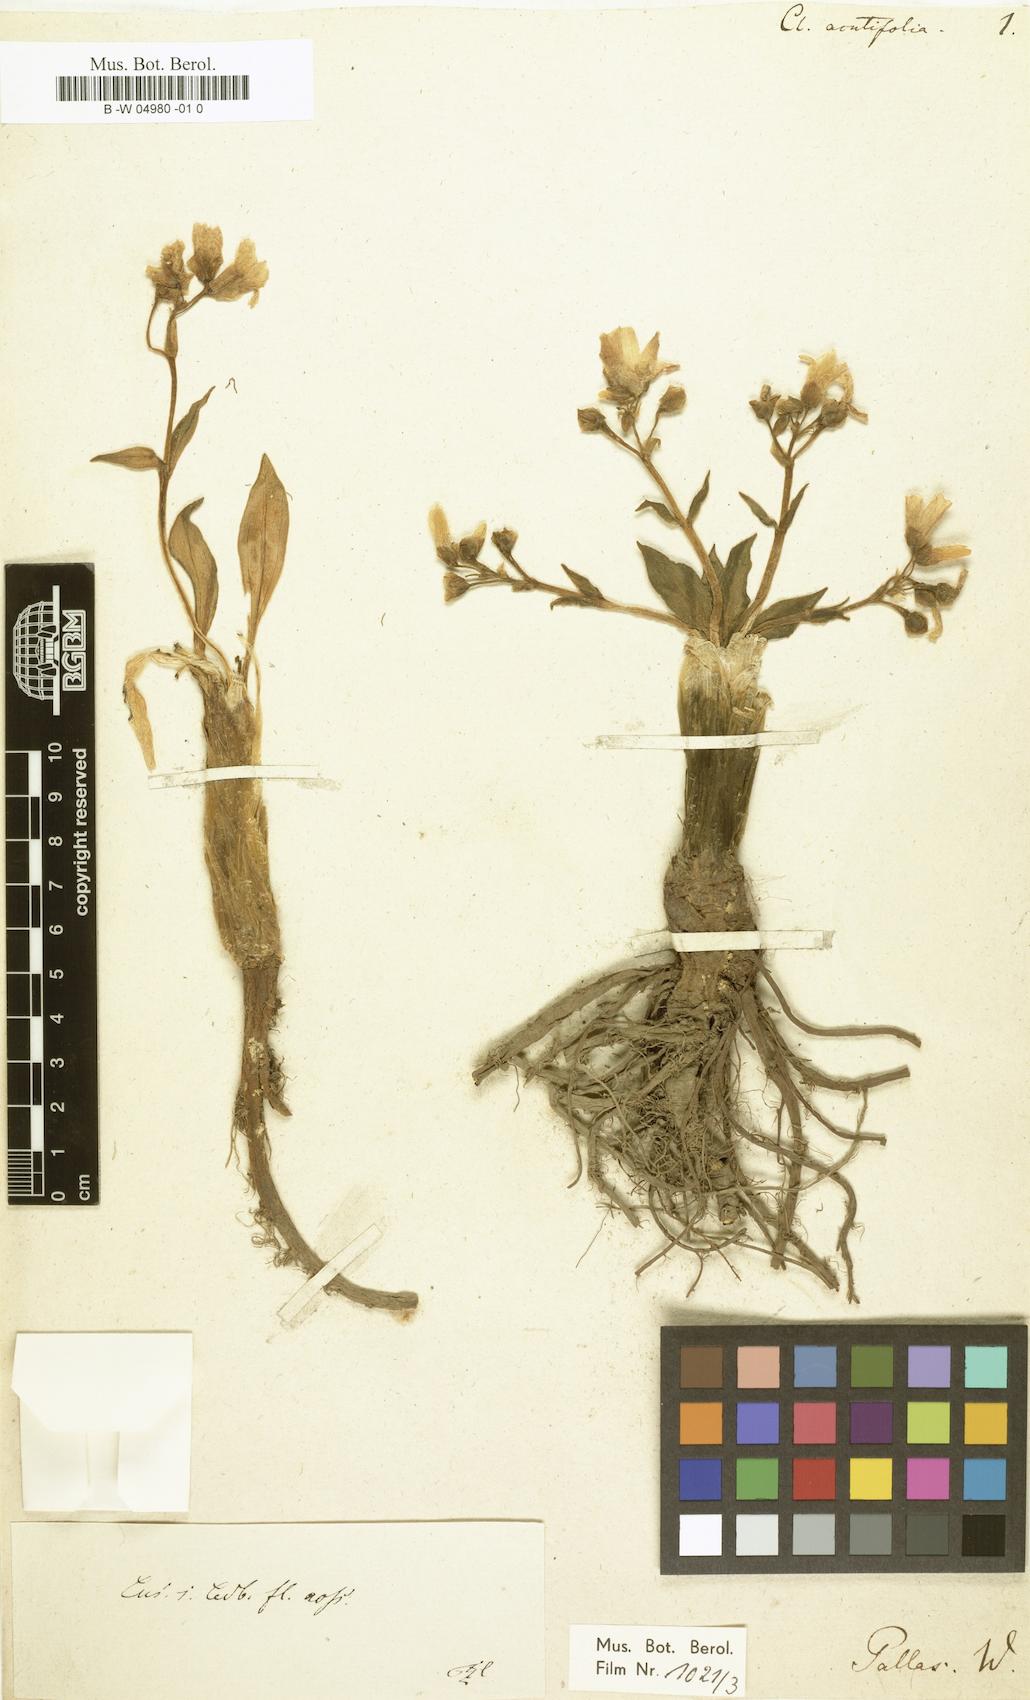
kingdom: Plantae
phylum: Tracheophyta
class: Magnoliopsida
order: Caryophyllales
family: Montiaceae
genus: Claytonia
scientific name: Claytonia acutifolia
